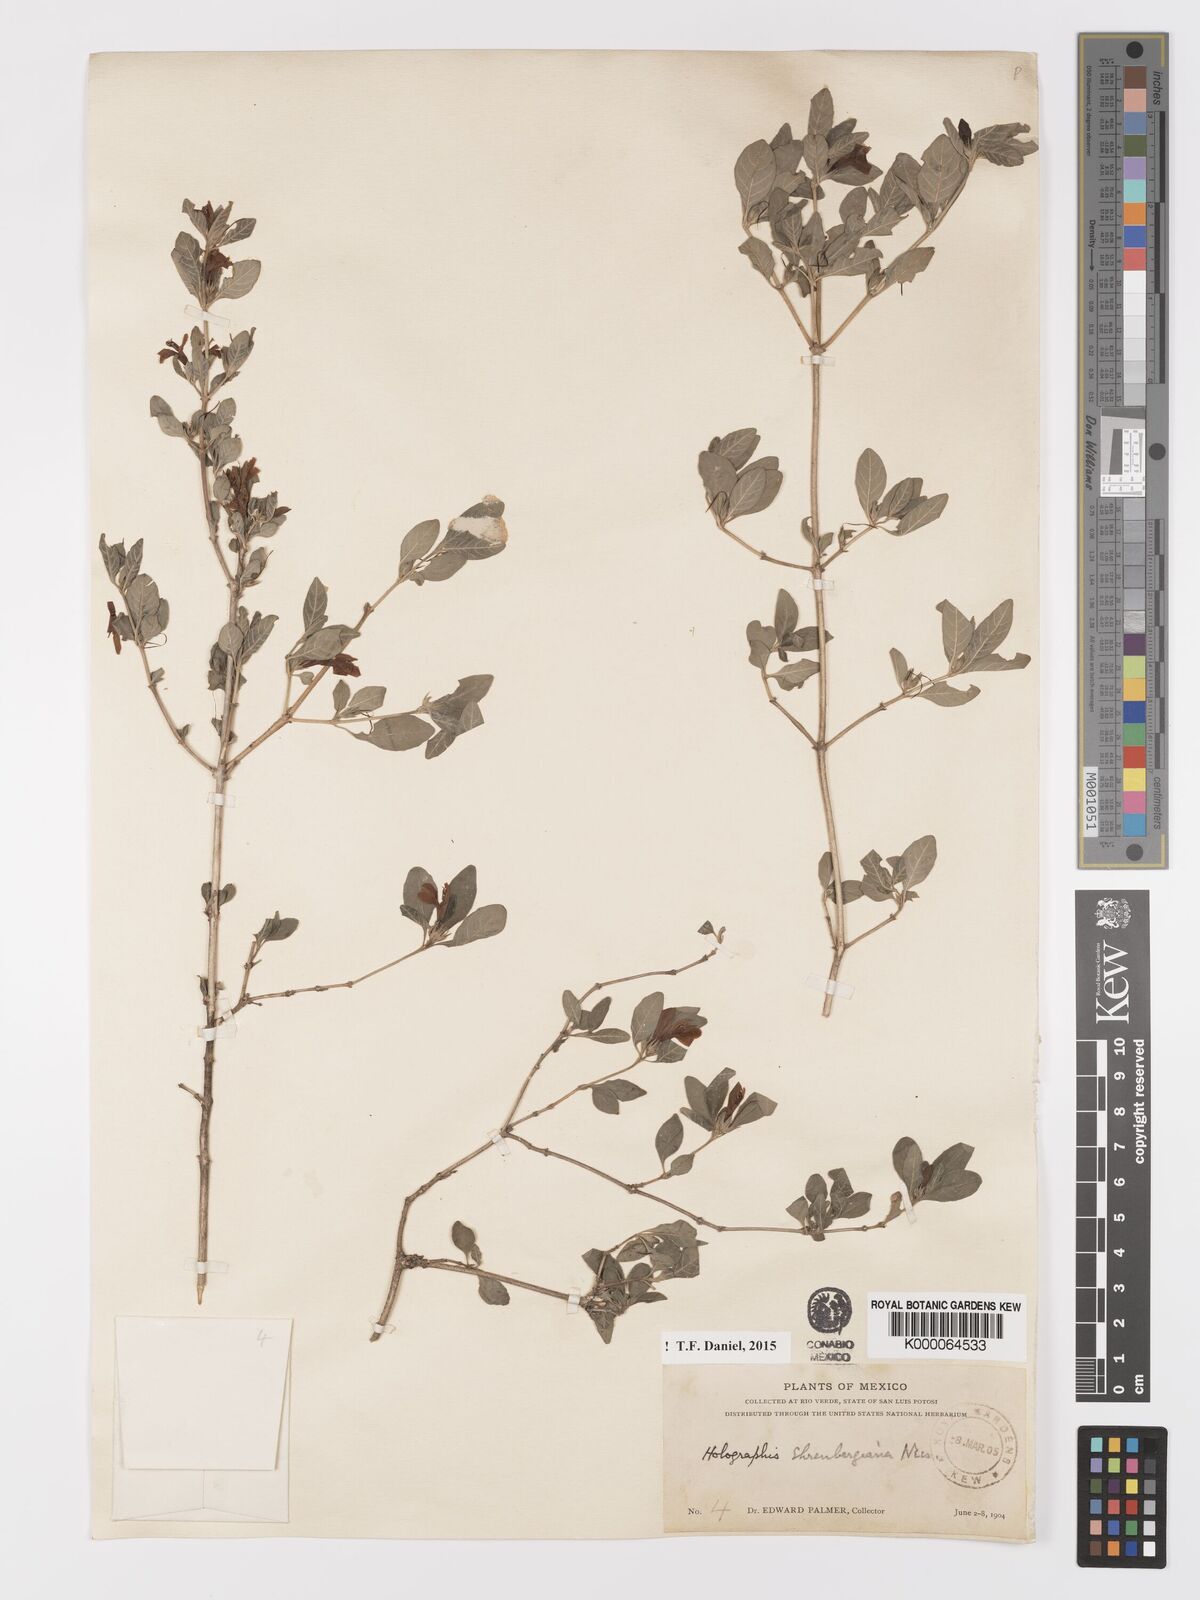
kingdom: Plantae
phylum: Tracheophyta
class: Magnoliopsida
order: Lamiales
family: Acanthaceae
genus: Holographis
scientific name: Holographis ehrenbergiana
